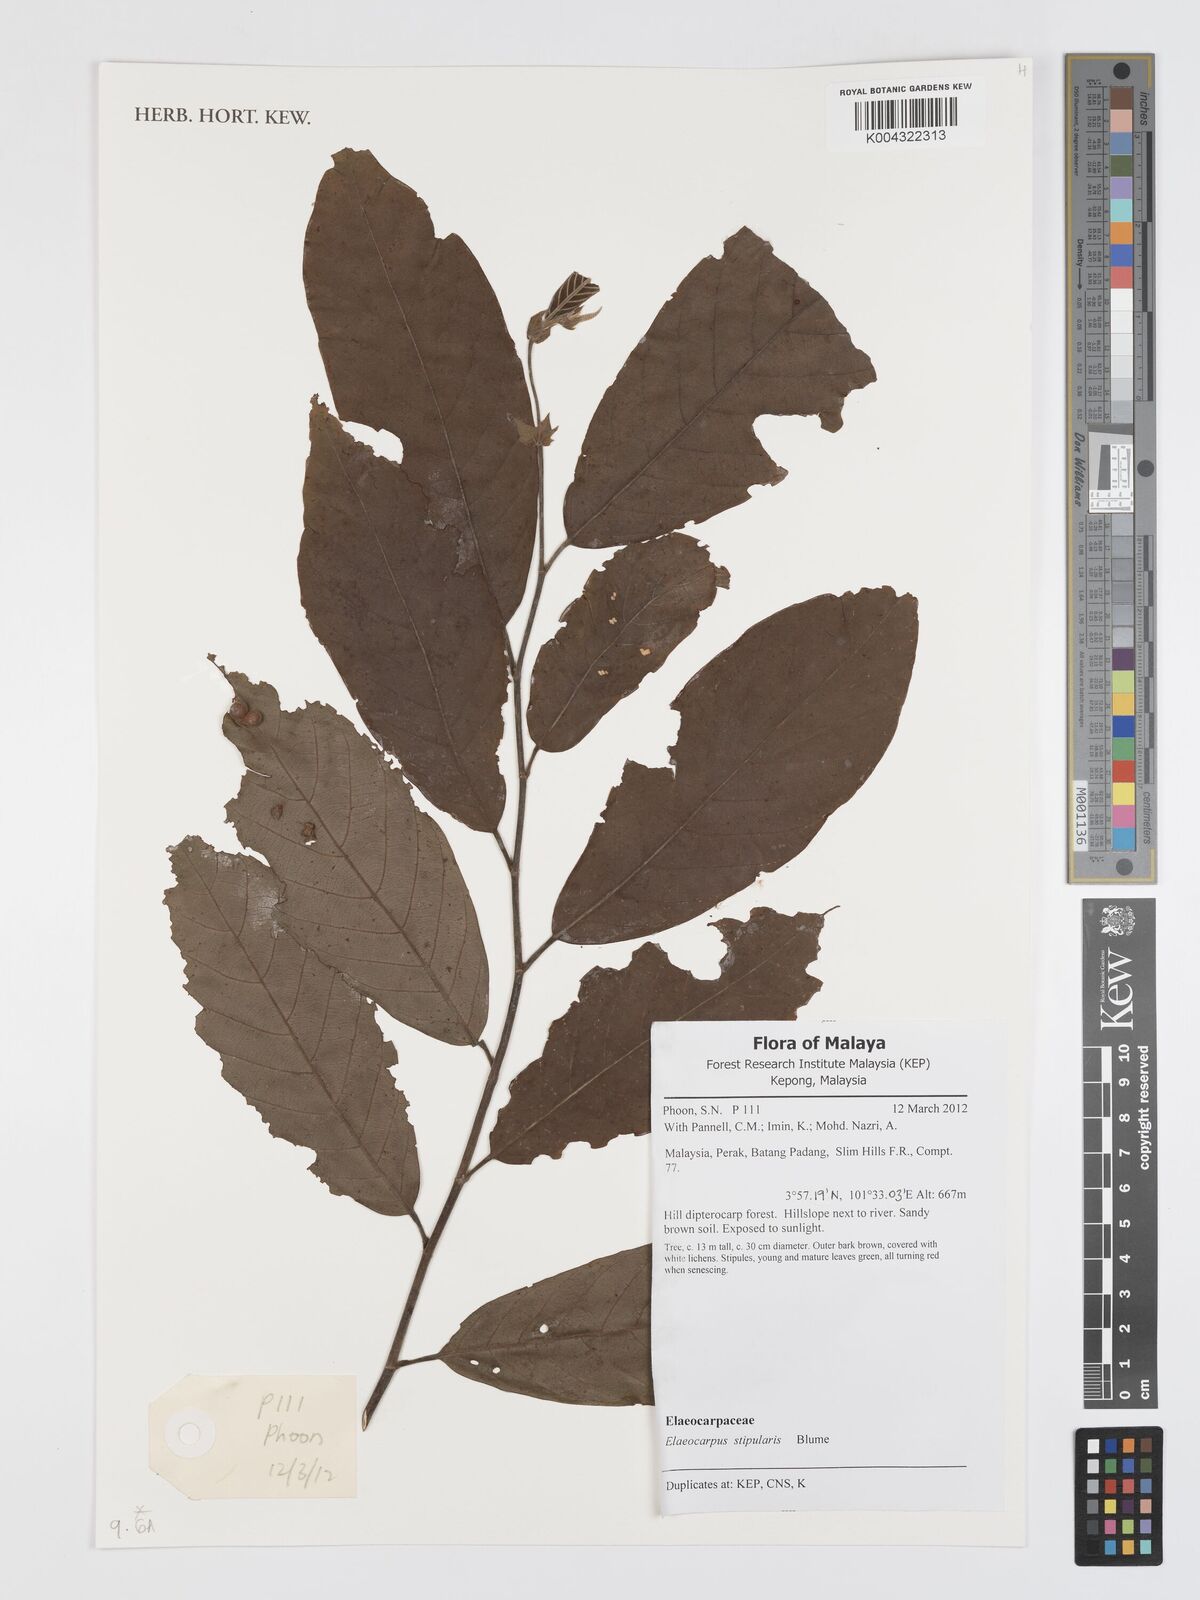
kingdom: Plantae
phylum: Tracheophyta
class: Magnoliopsida
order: Oxalidales
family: Elaeocarpaceae
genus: Elaeocarpus
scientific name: Elaeocarpus stipularis
